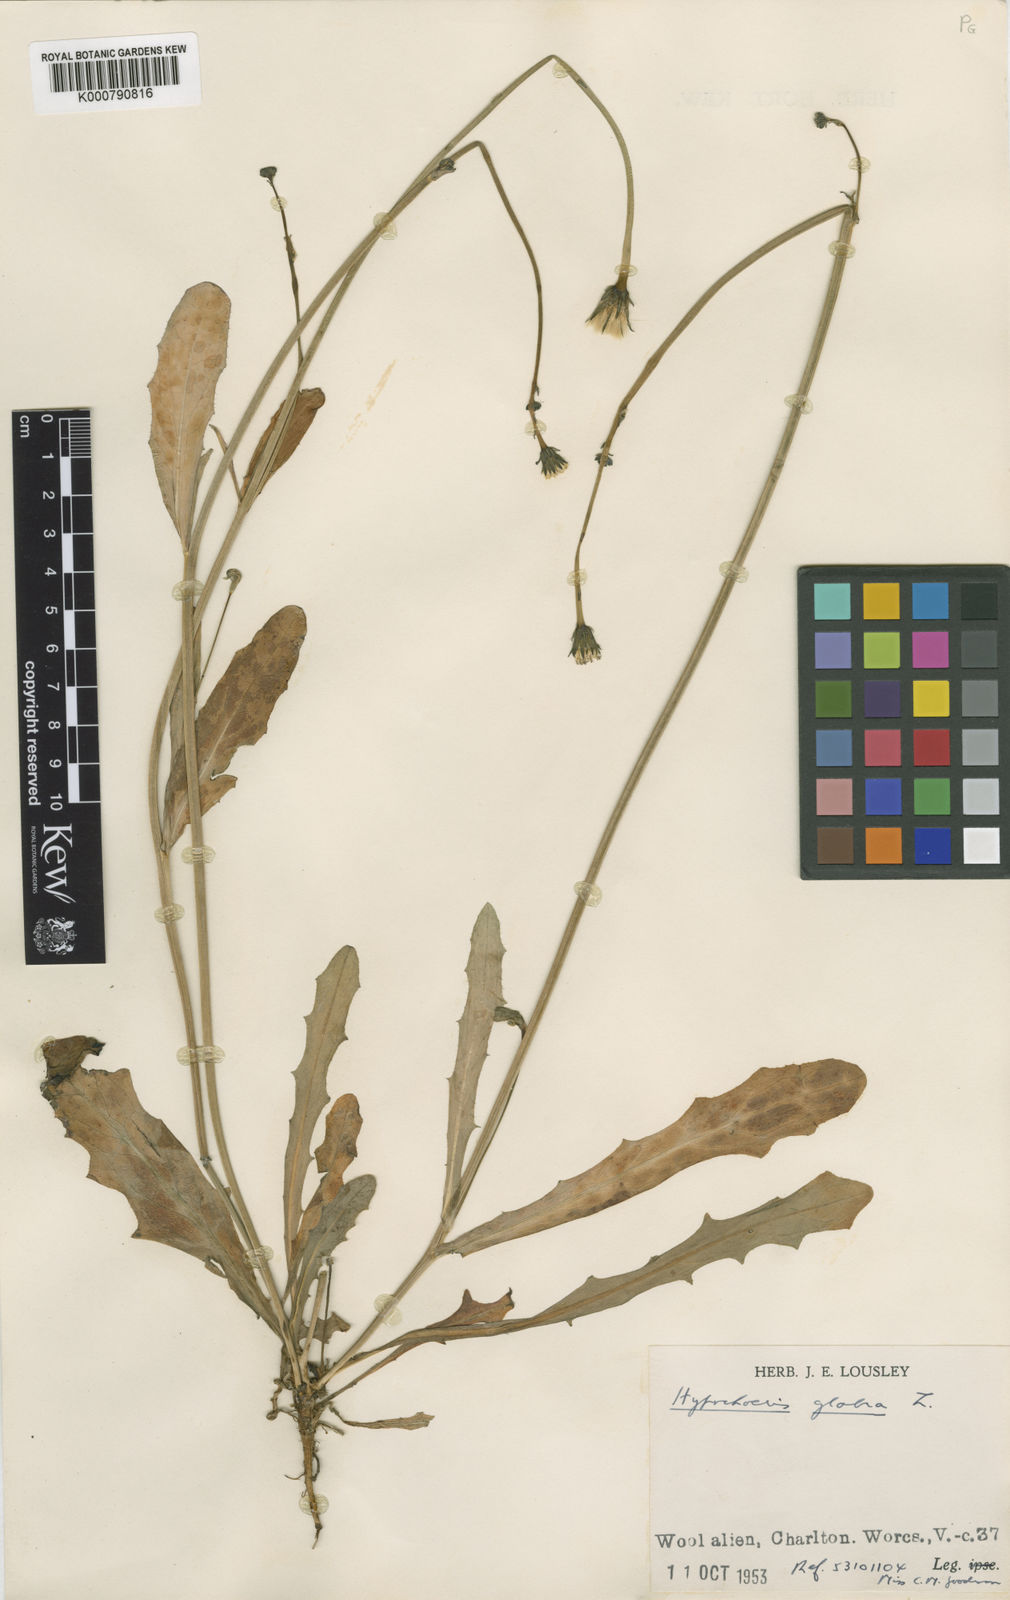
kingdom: Plantae
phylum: Tracheophyta
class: Magnoliopsida
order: Asterales
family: Asteraceae
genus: Hypochaeris
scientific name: Hypochaeris glabra
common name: Smooth catsear
